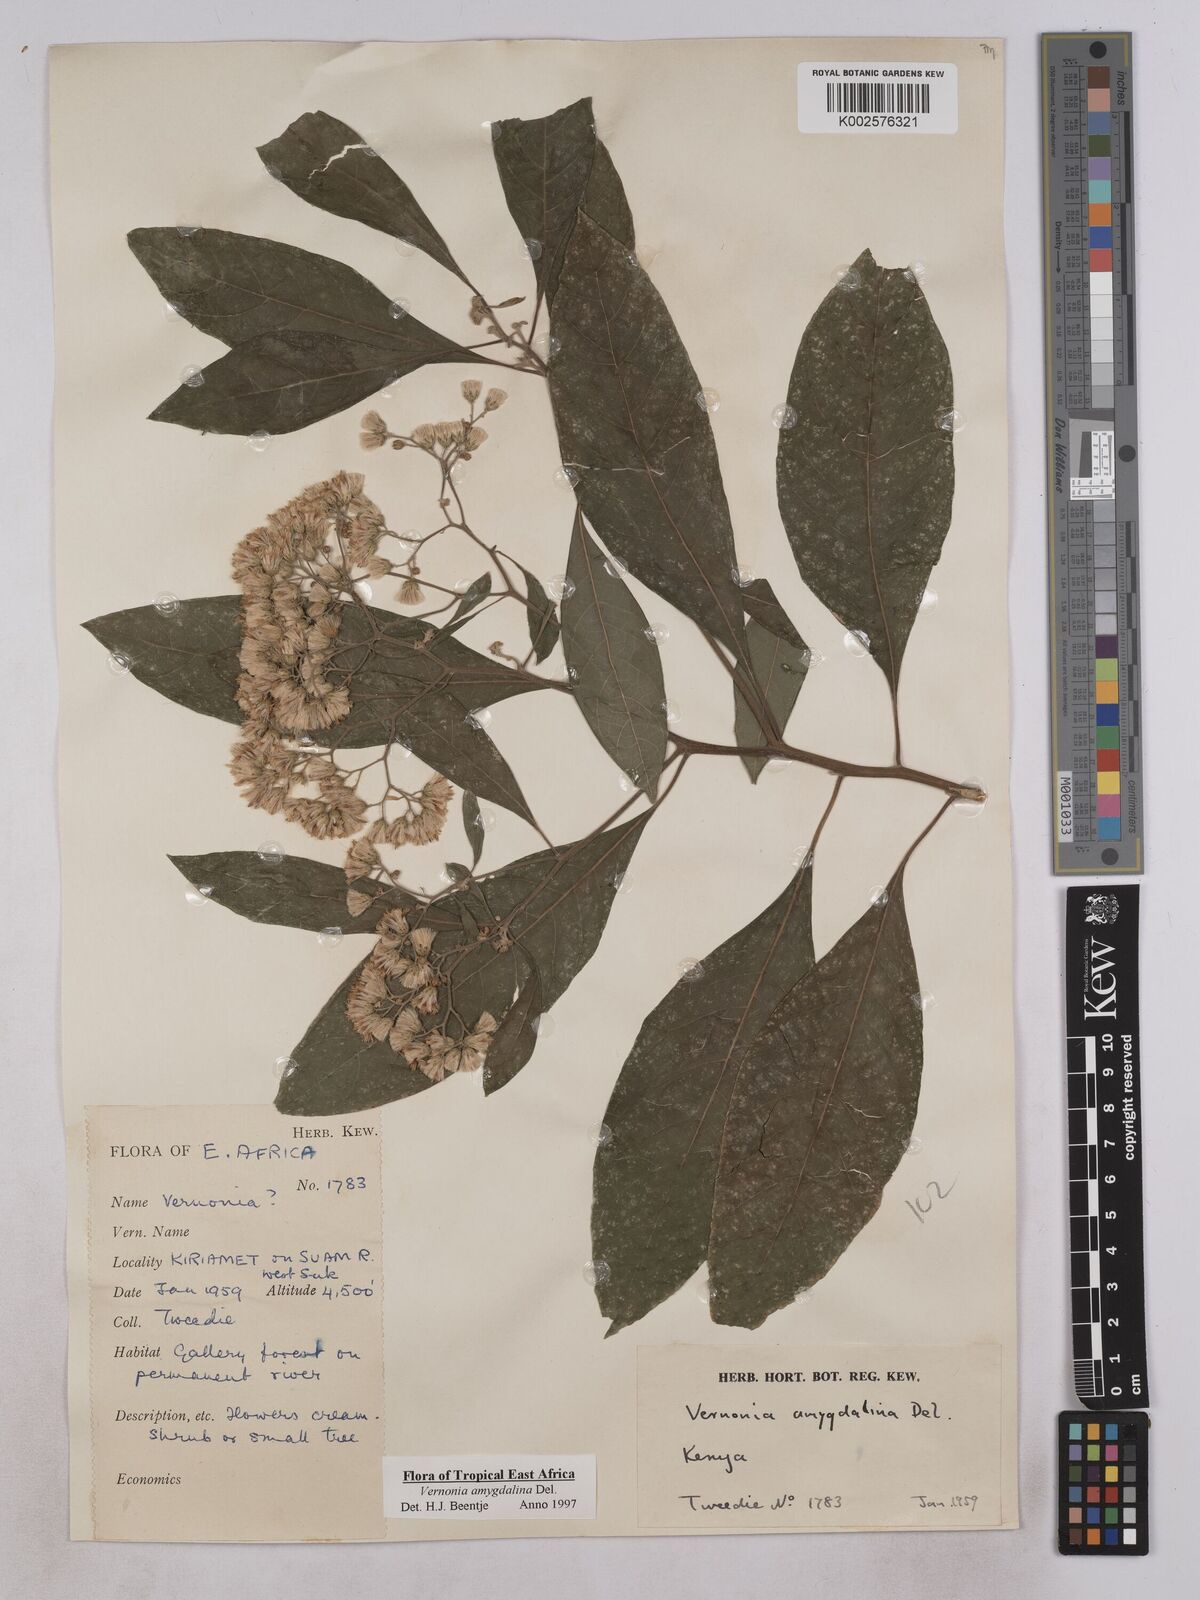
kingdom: Plantae
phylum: Tracheophyta
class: Magnoliopsida
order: Asterales
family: Asteraceae
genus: Gymnanthemum
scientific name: Gymnanthemum amygdalinum
